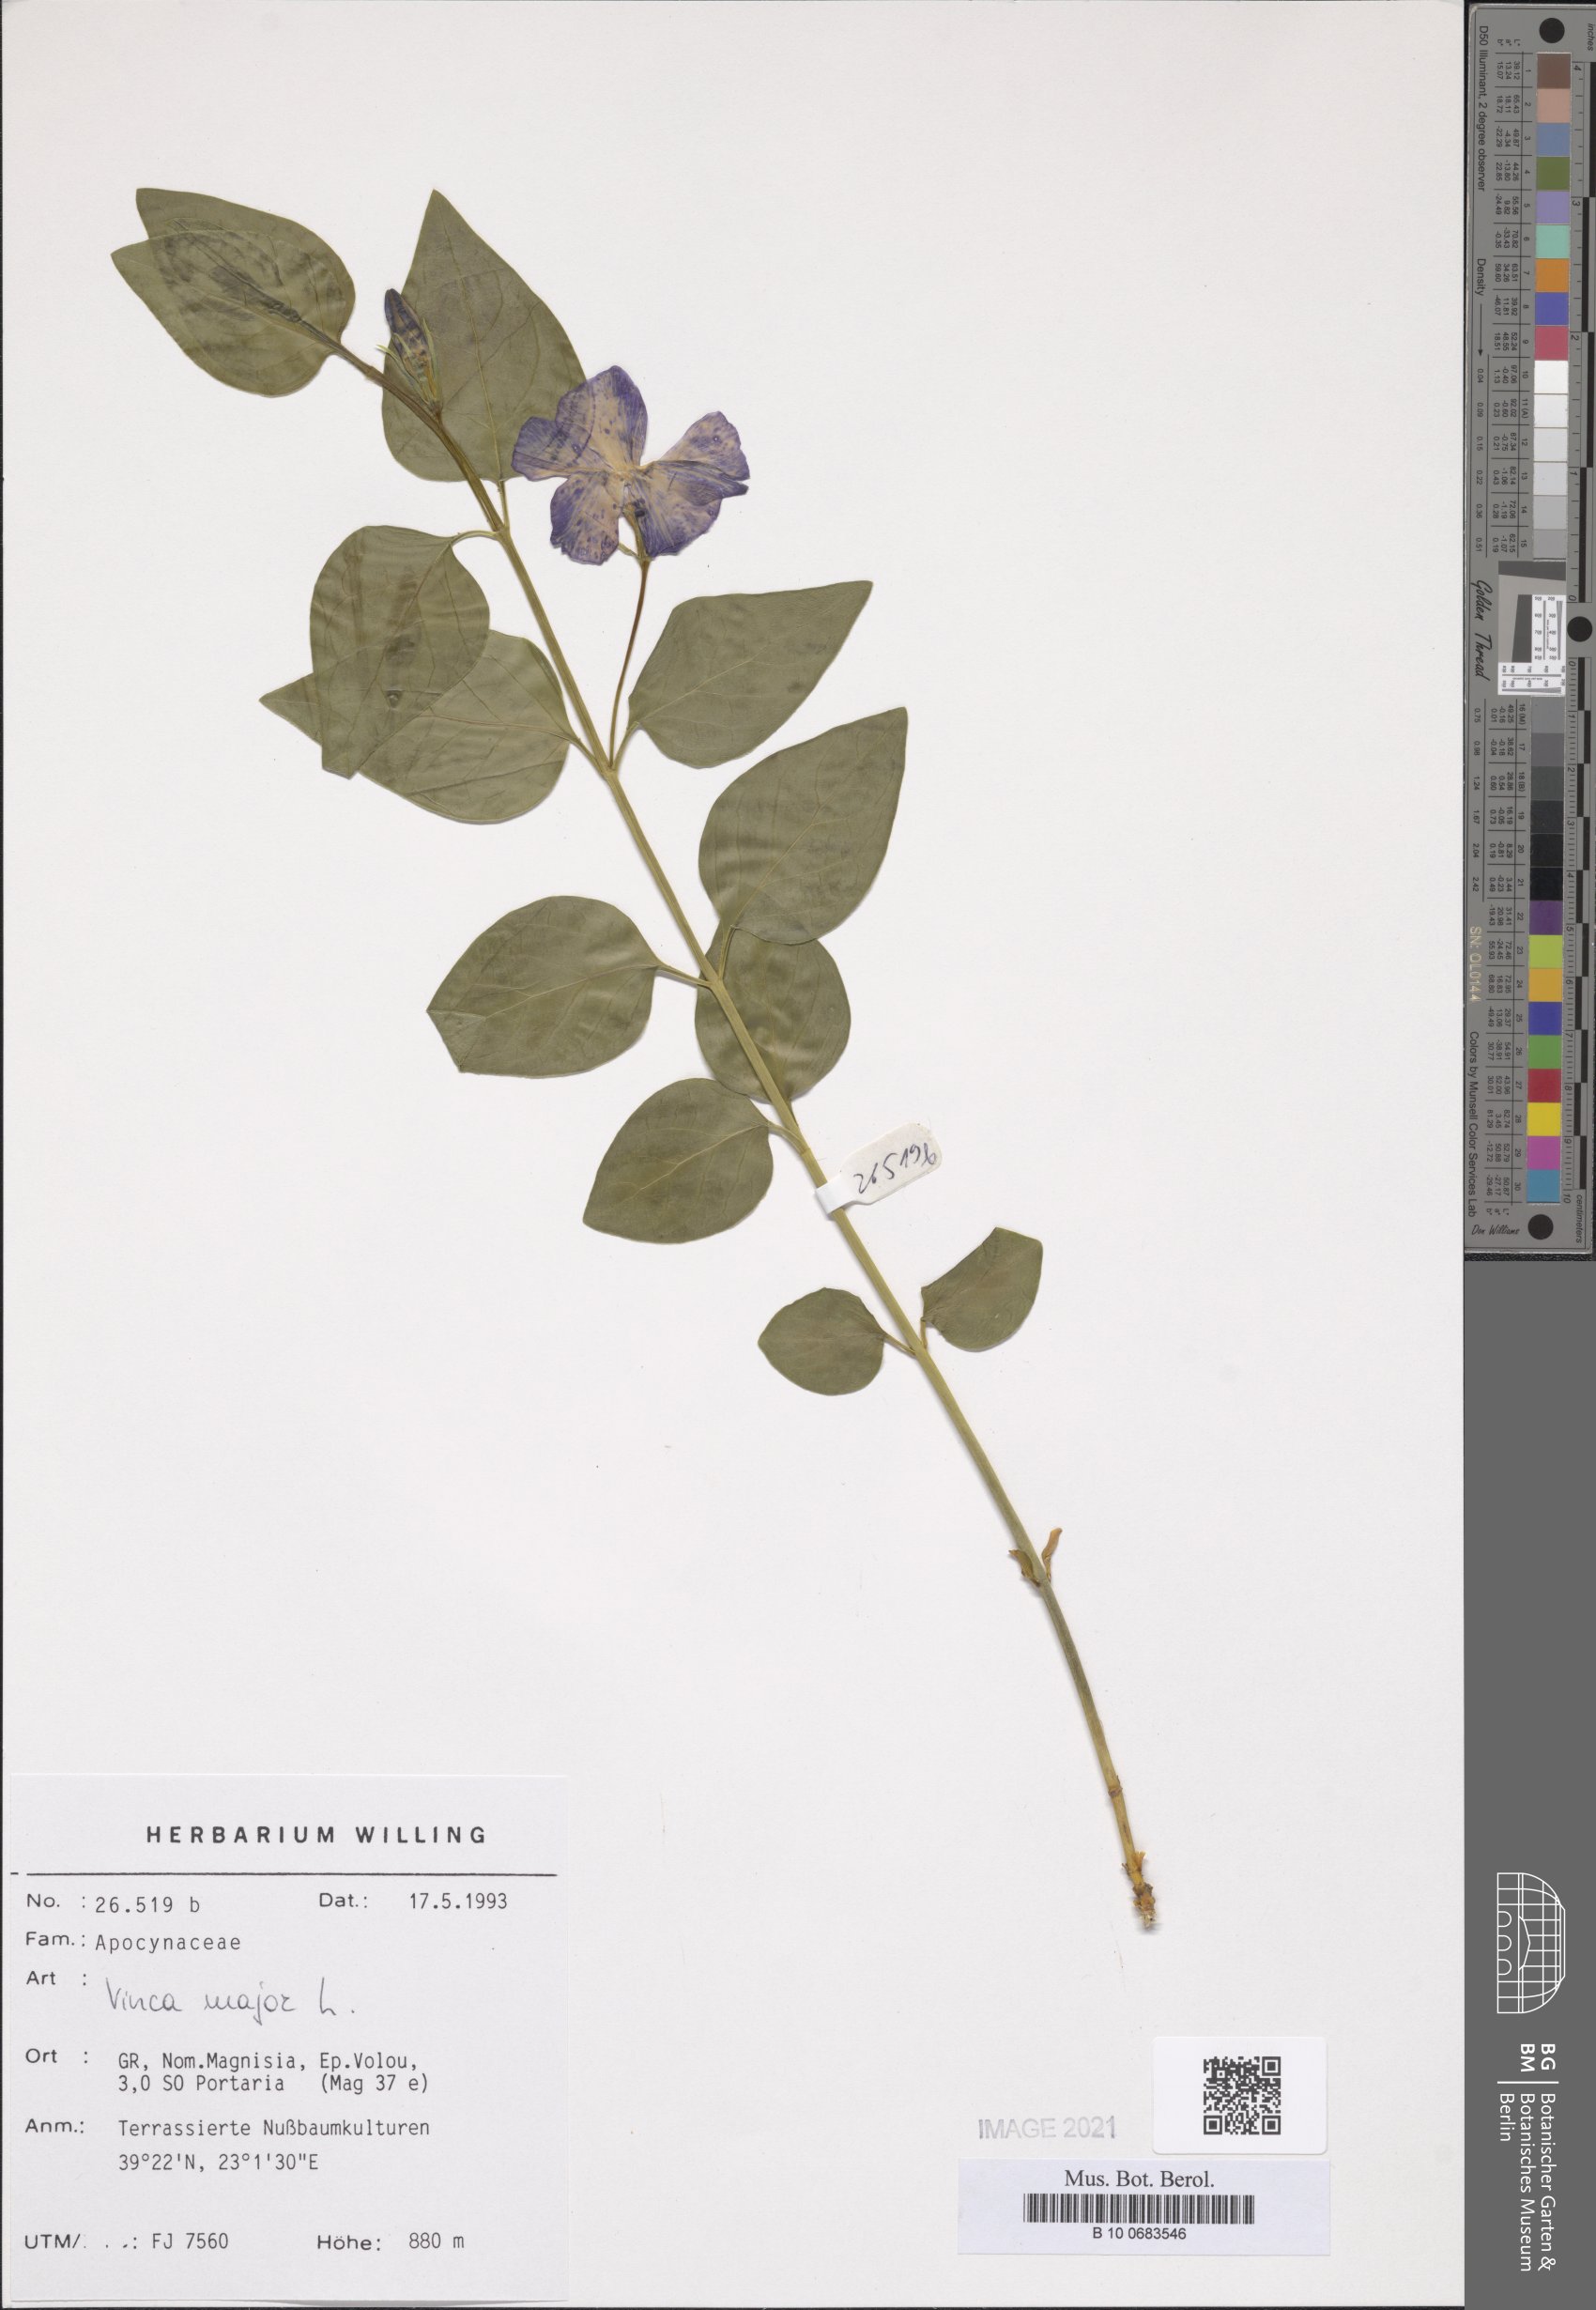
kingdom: Plantae
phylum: Tracheophyta
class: Magnoliopsida
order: Gentianales
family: Apocynaceae
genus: Vinca
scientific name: Vinca major
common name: Greater periwinkle
